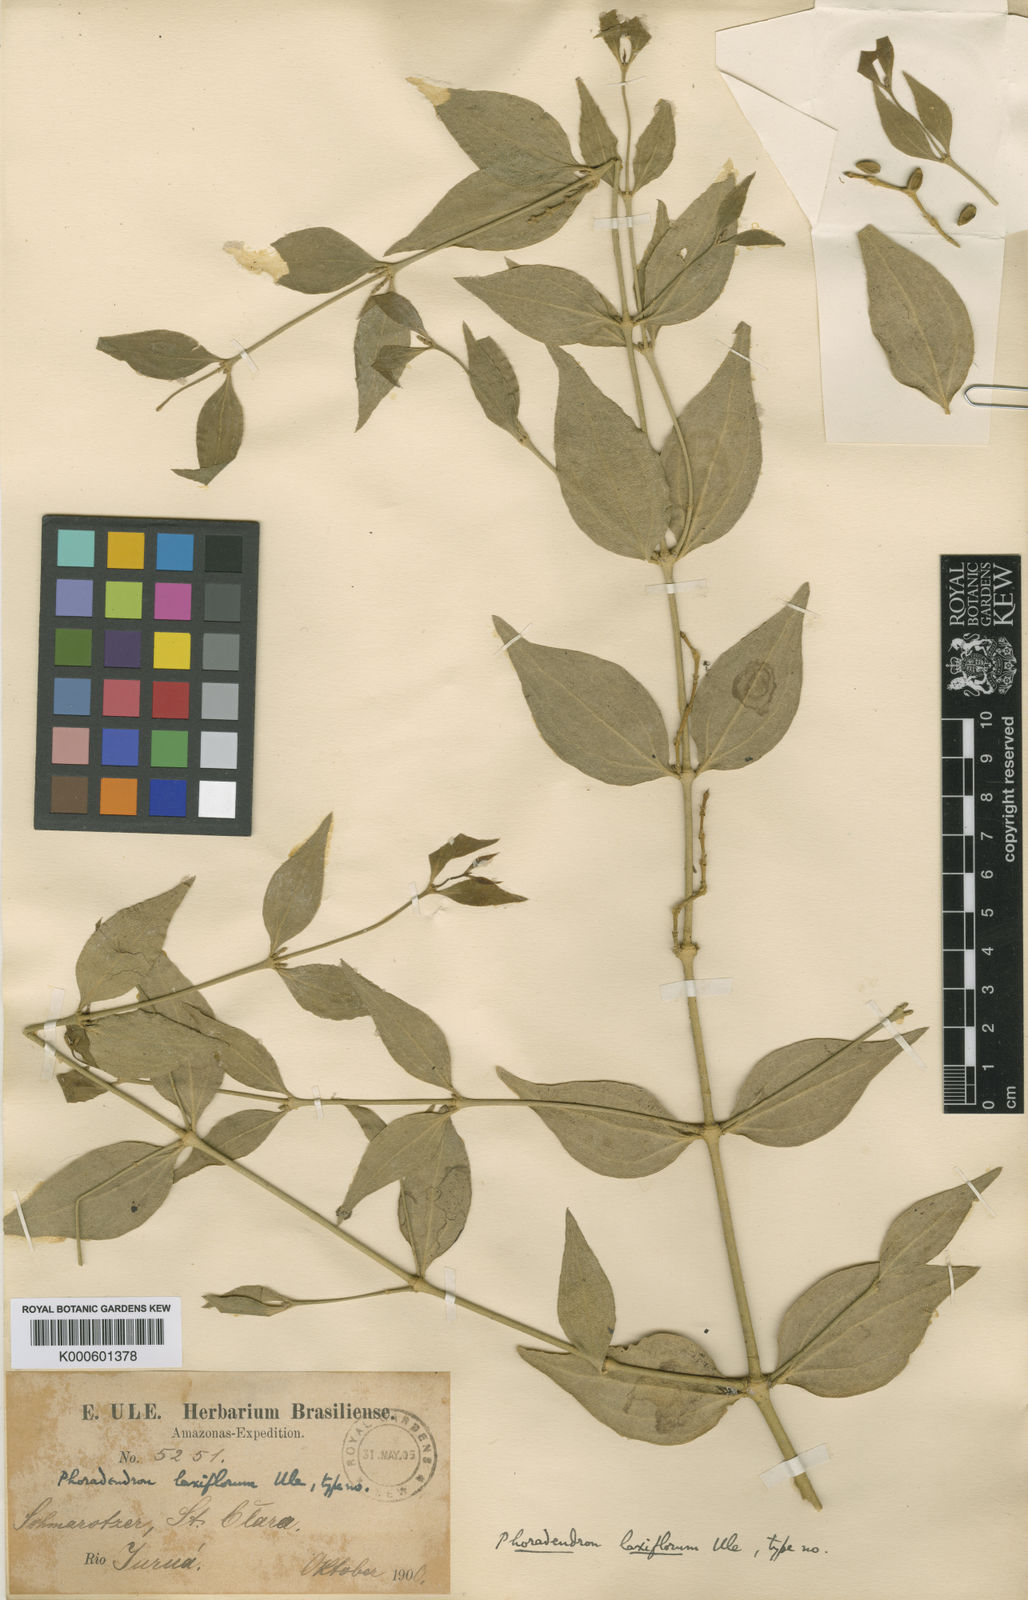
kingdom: Plantae
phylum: Tracheophyta
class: Magnoliopsida
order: Santalales
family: Viscaceae
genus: Phoradendron
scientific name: Phoradendron laxiflorum
